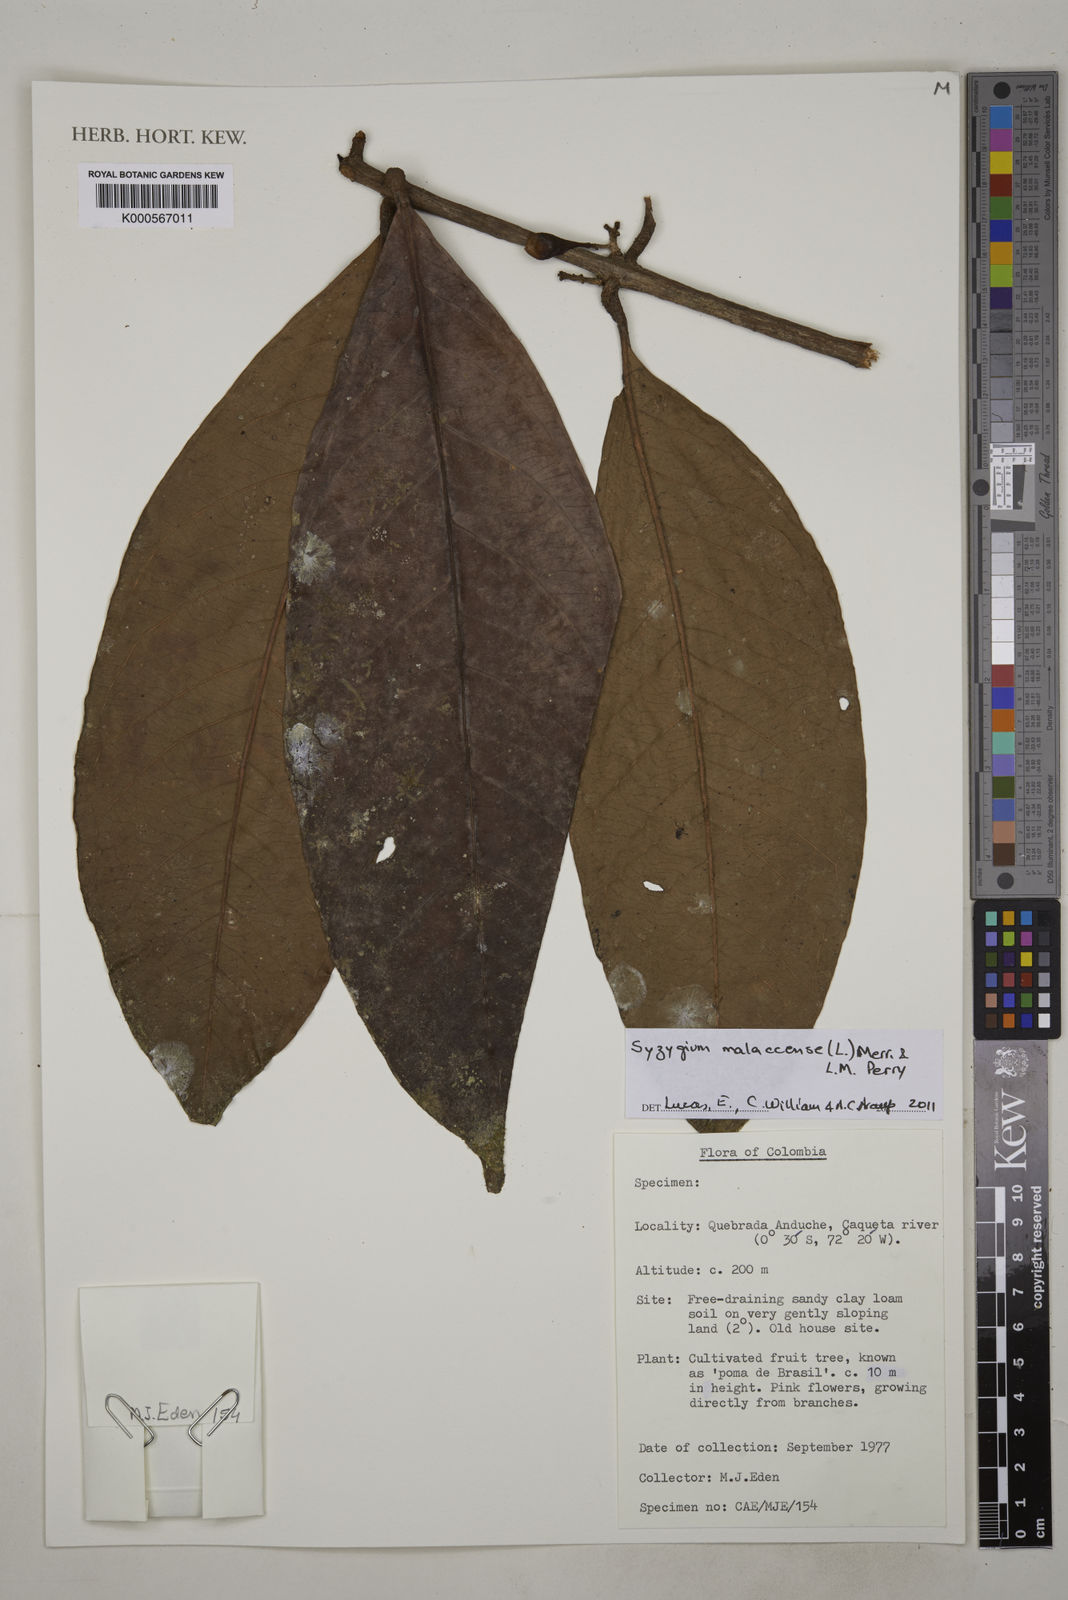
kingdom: Plantae
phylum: Tracheophyta
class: Magnoliopsida
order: Myrtales
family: Myrtaceae
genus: Syzygium
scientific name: Syzygium malaccense
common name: Malaysian apple
